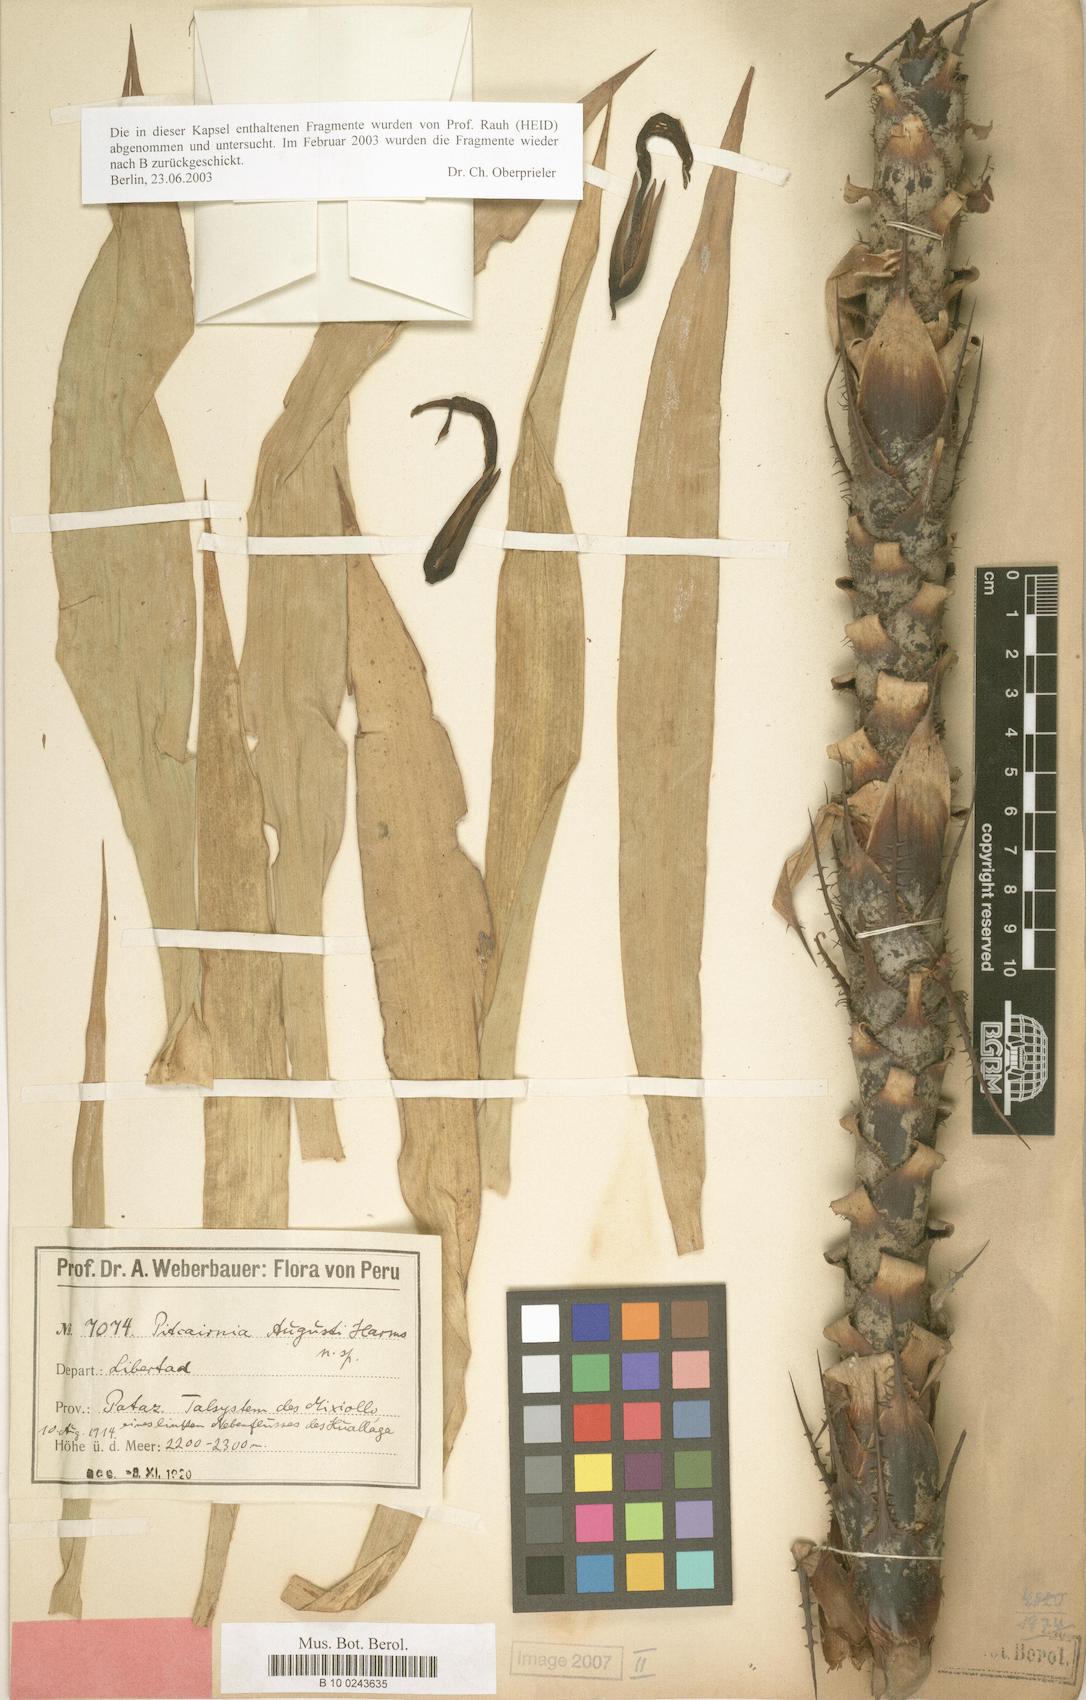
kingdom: Plantae
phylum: Tracheophyta
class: Liliopsida
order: Poales
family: Bromeliaceae
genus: Pitcairnia
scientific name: Pitcairnia augusti
